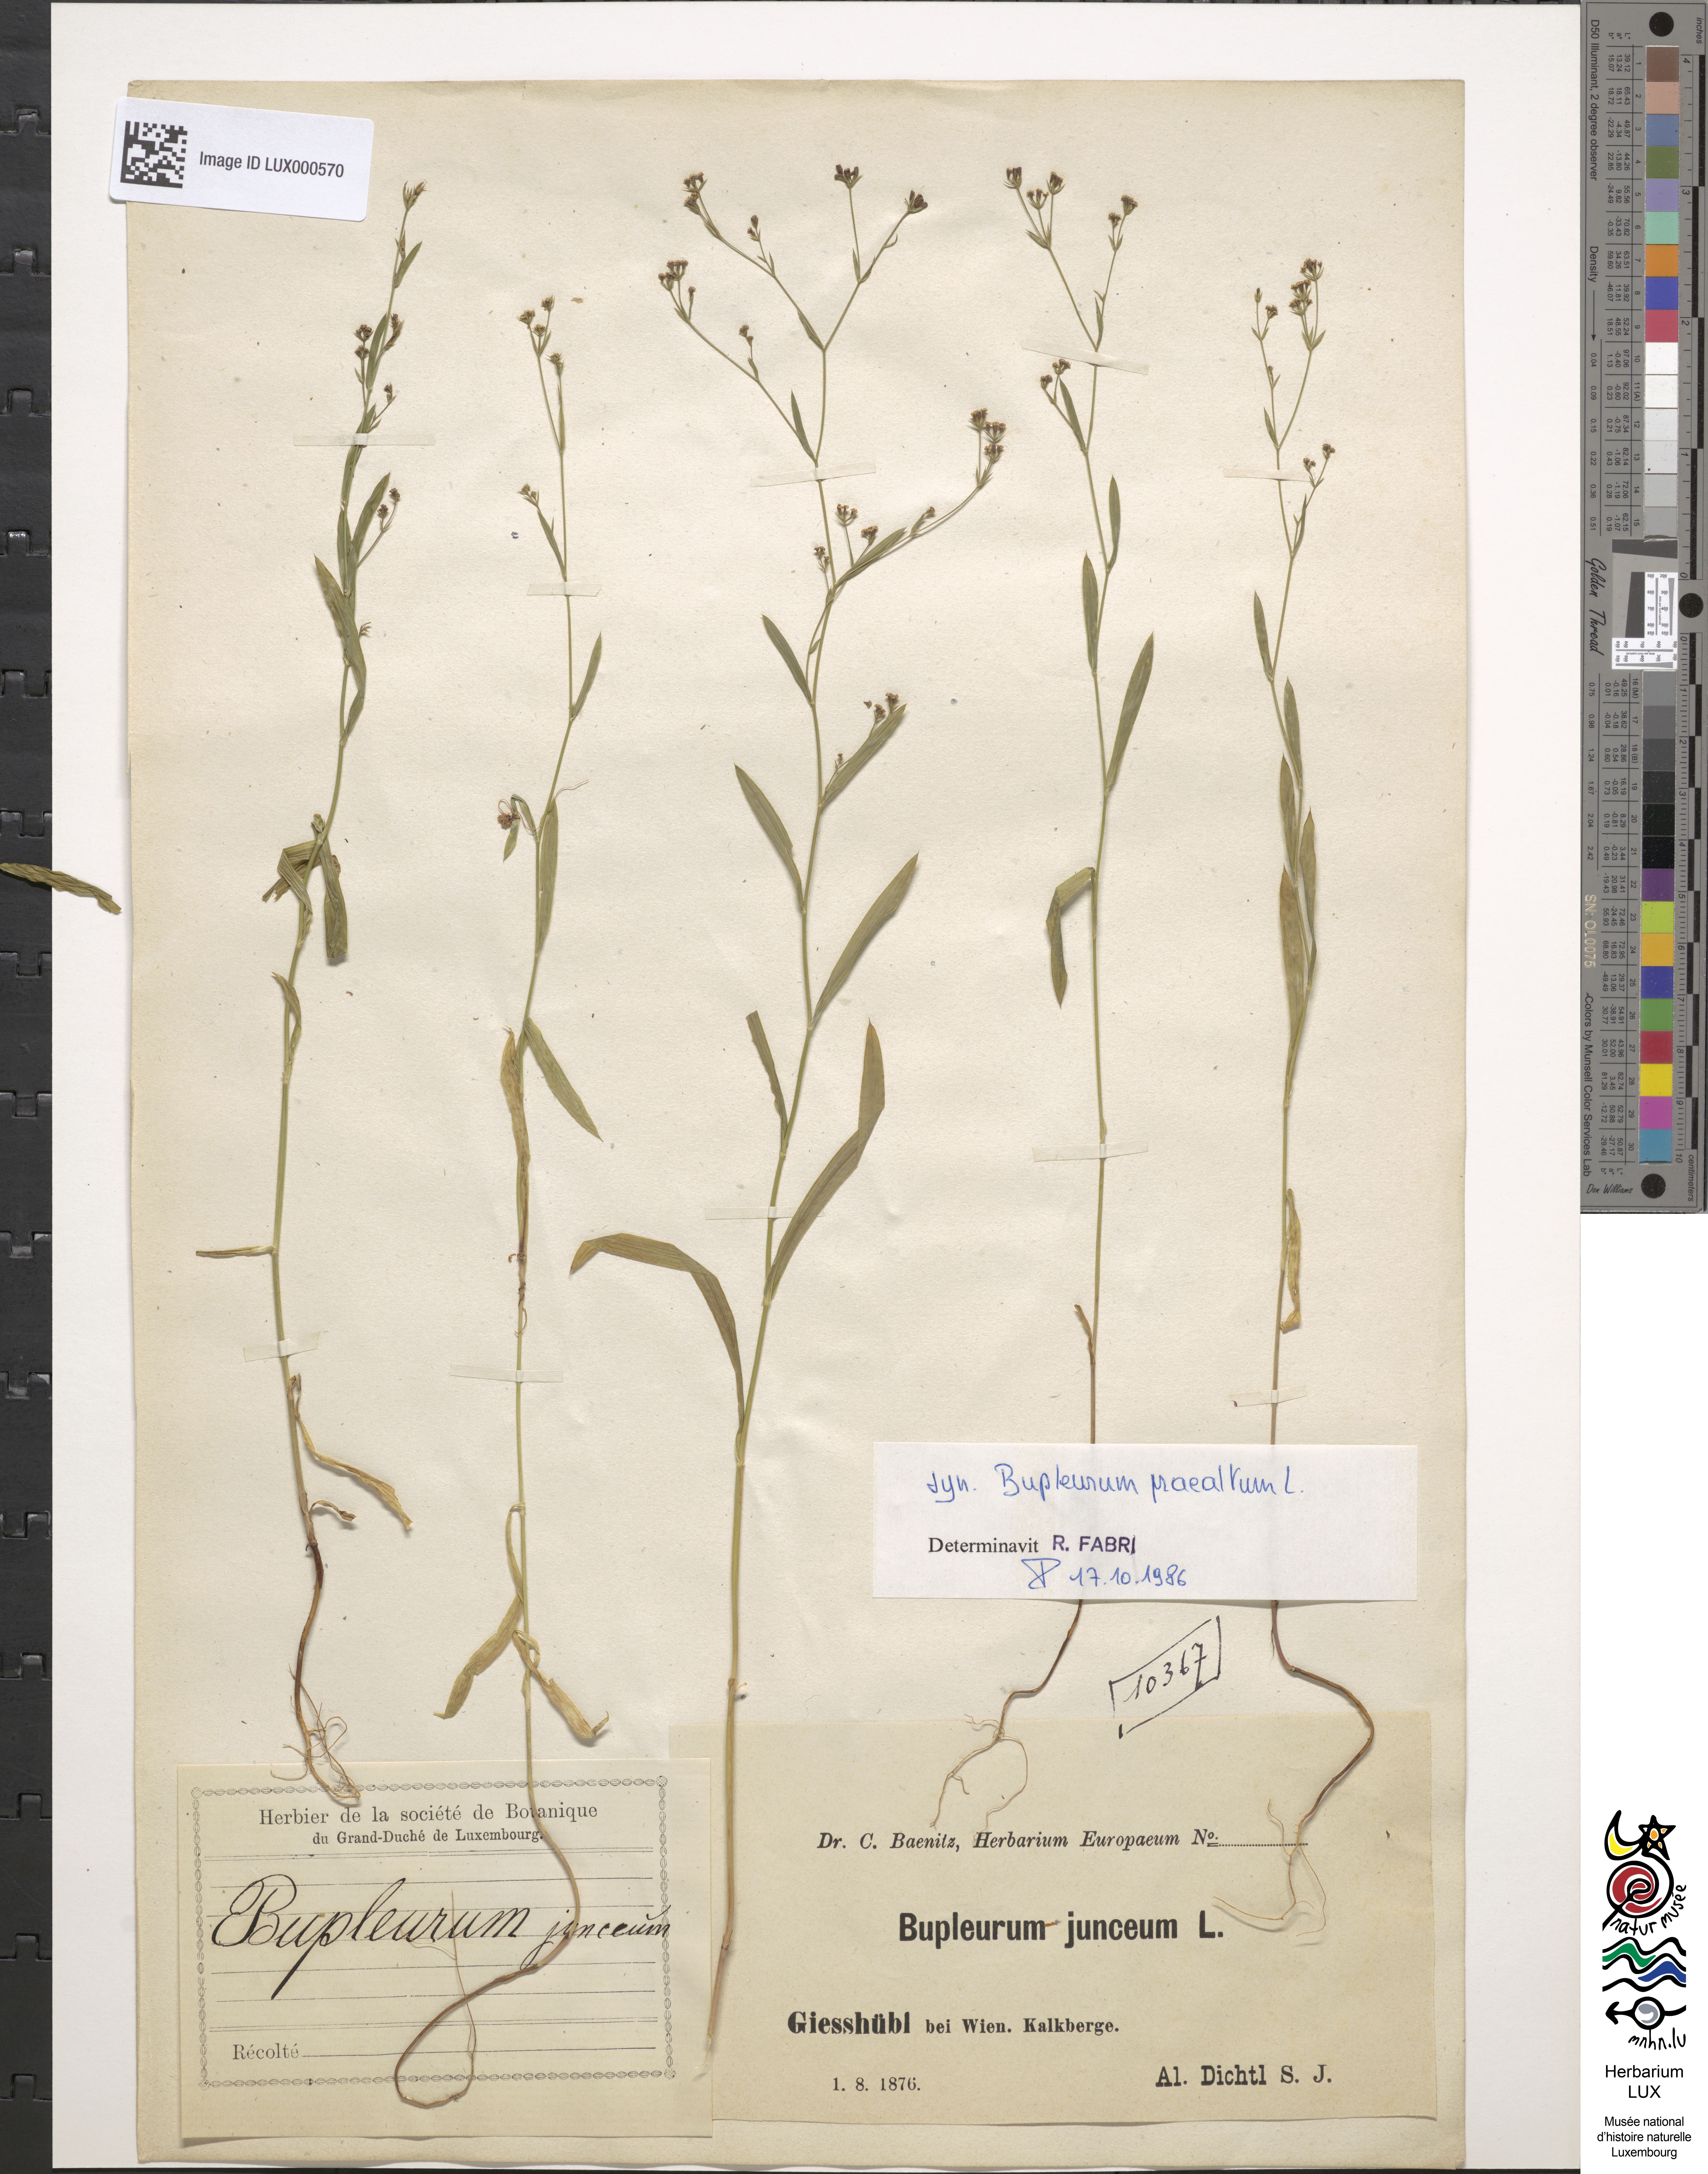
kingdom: Plantae
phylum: Tracheophyta
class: Magnoliopsida
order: Apiales
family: Apiaceae
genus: Bupleurum
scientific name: Bupleurum praealtum
